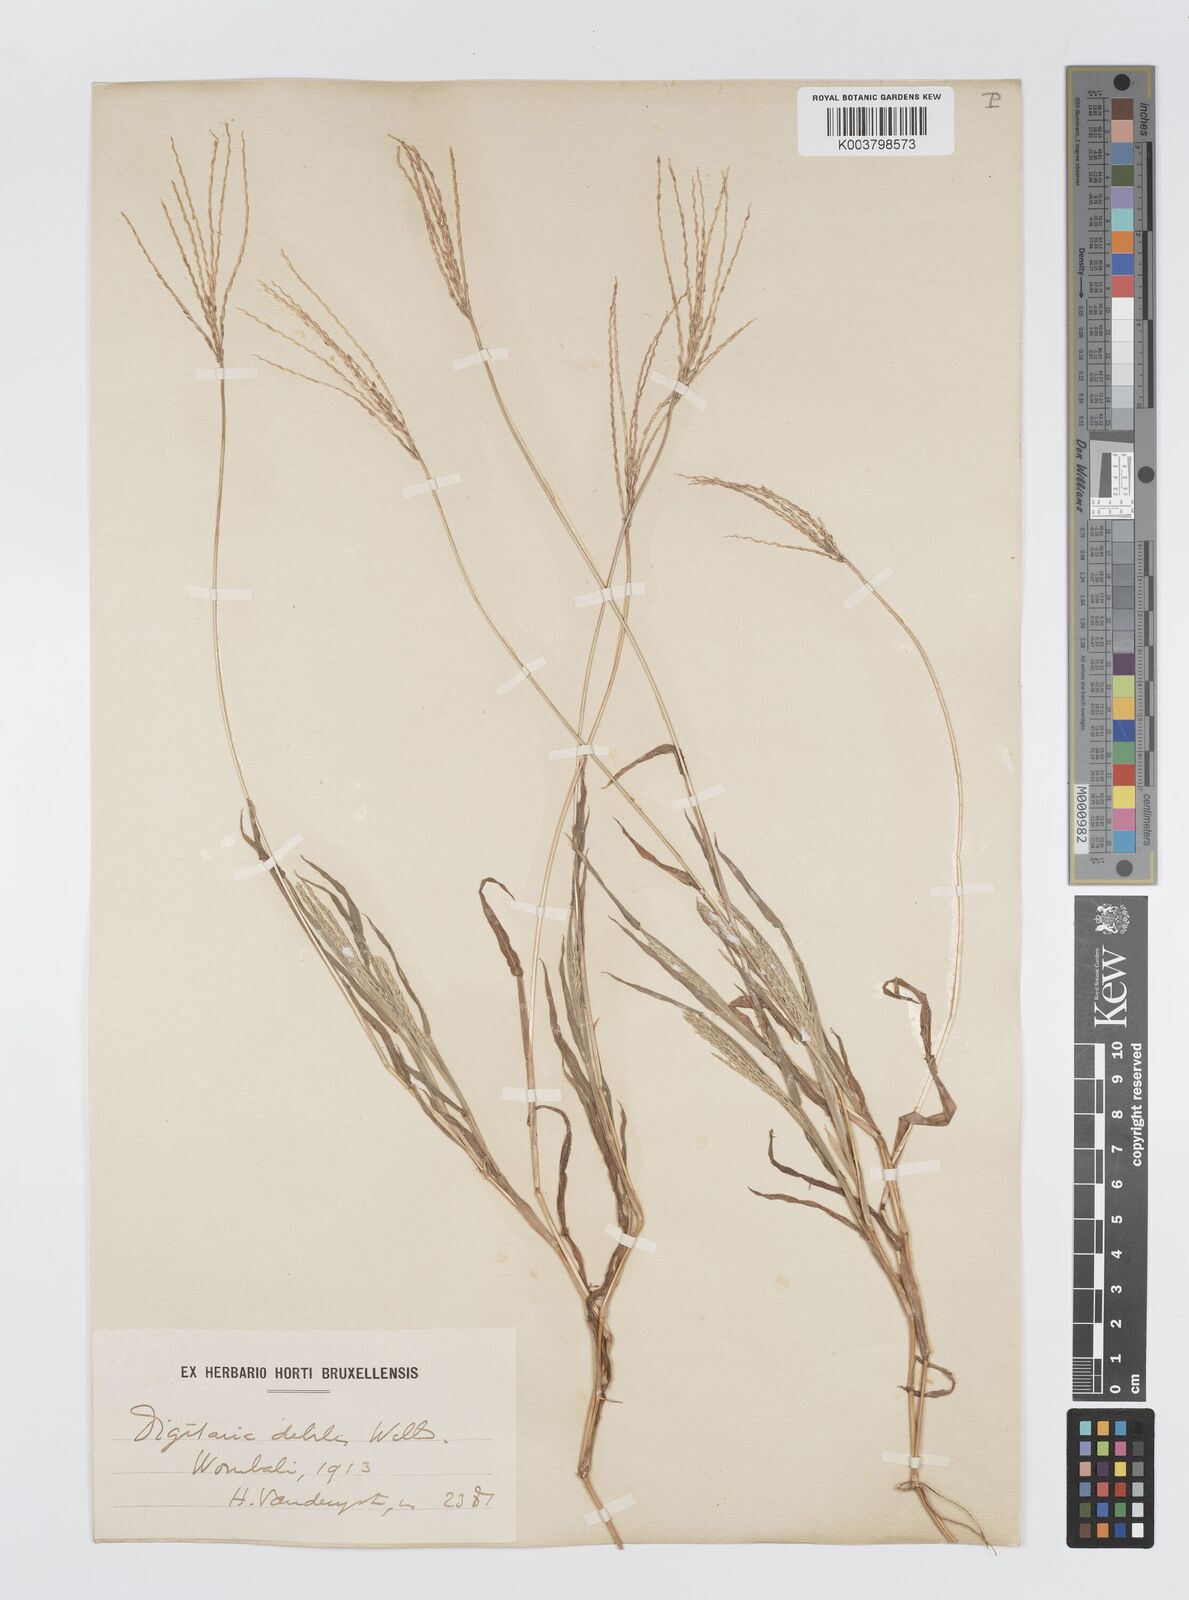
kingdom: Plantae
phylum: Tracheophyta
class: Liliopsida
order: Poales
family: Poaceae
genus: Digitaria
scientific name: Digitaria nuda
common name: Naked crabgrass
